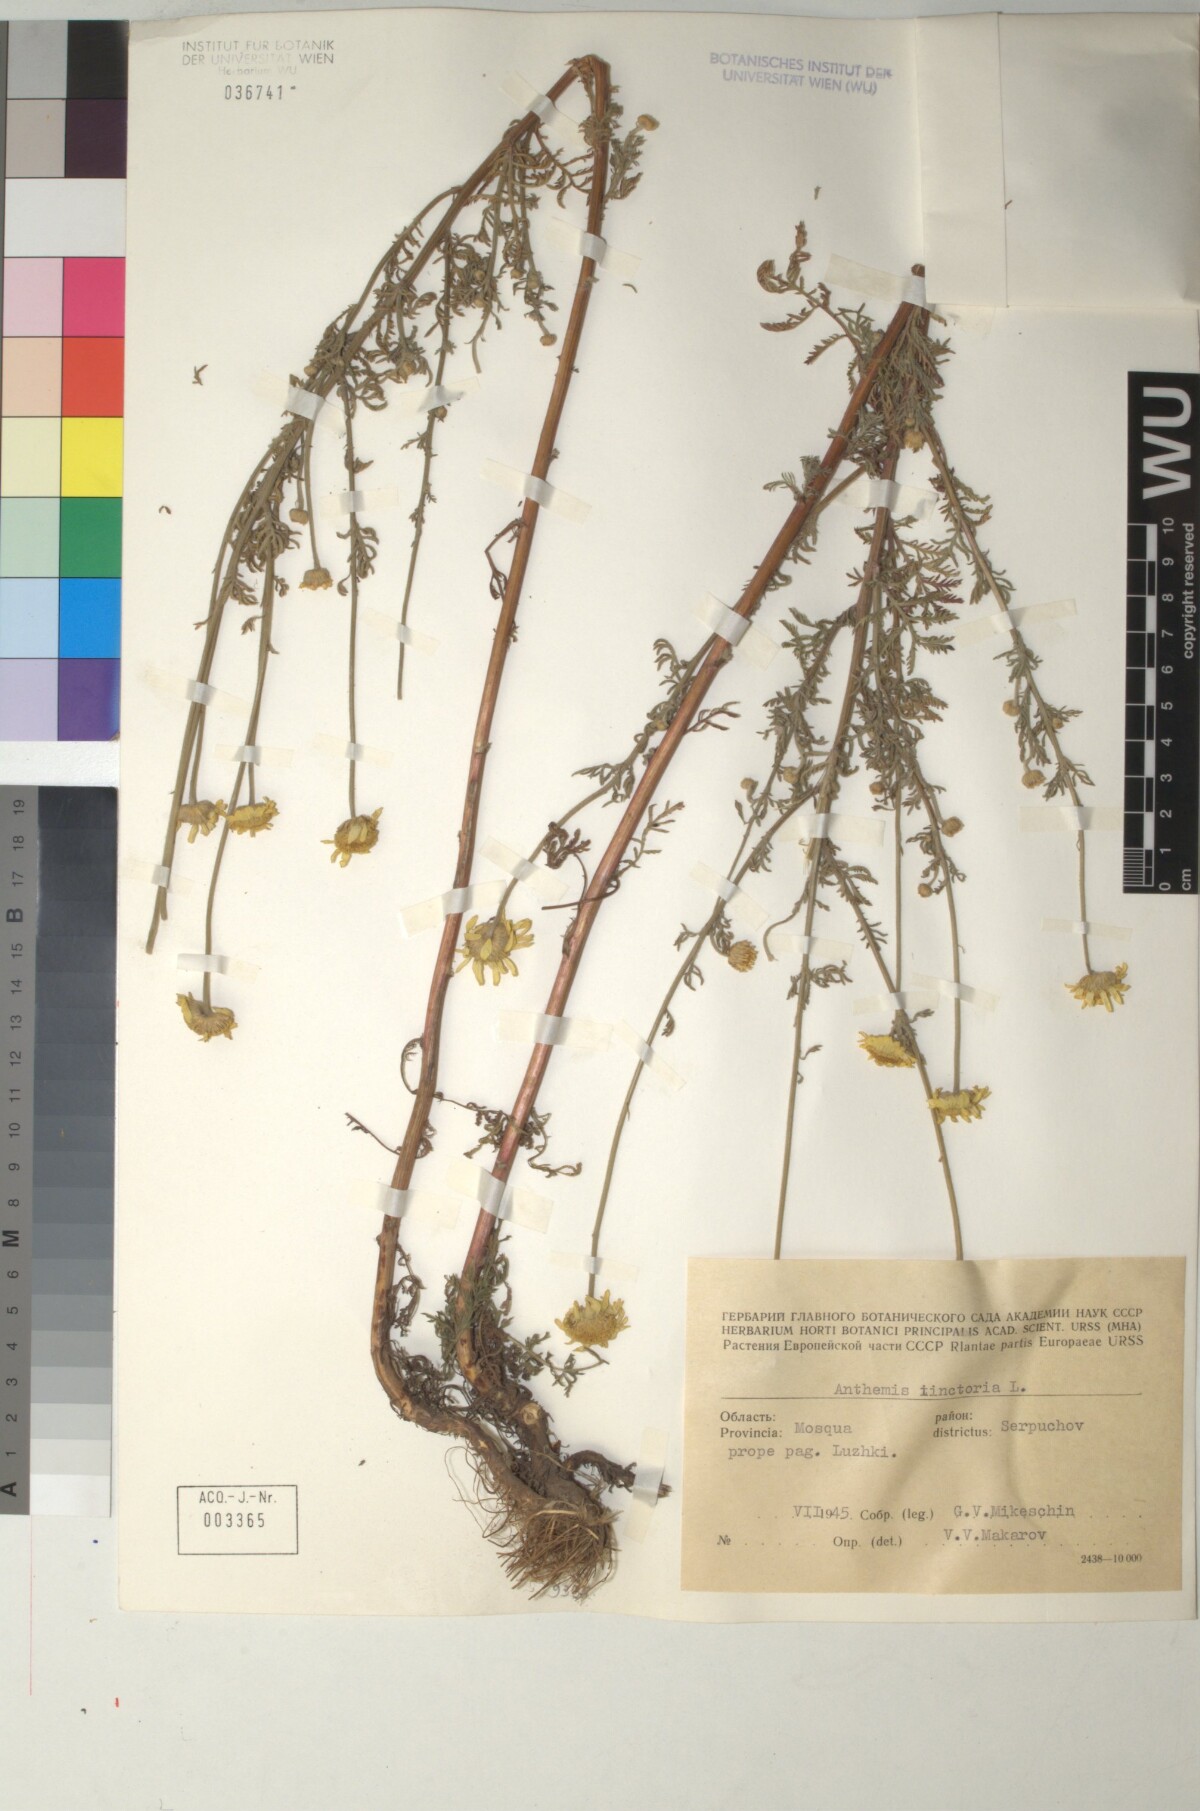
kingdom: Plantae
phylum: Tracheophyta
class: Magnoliopsida
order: Asterales
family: Asteraceae
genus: Cota
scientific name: Cota tinctoria
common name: Golden chamomile
